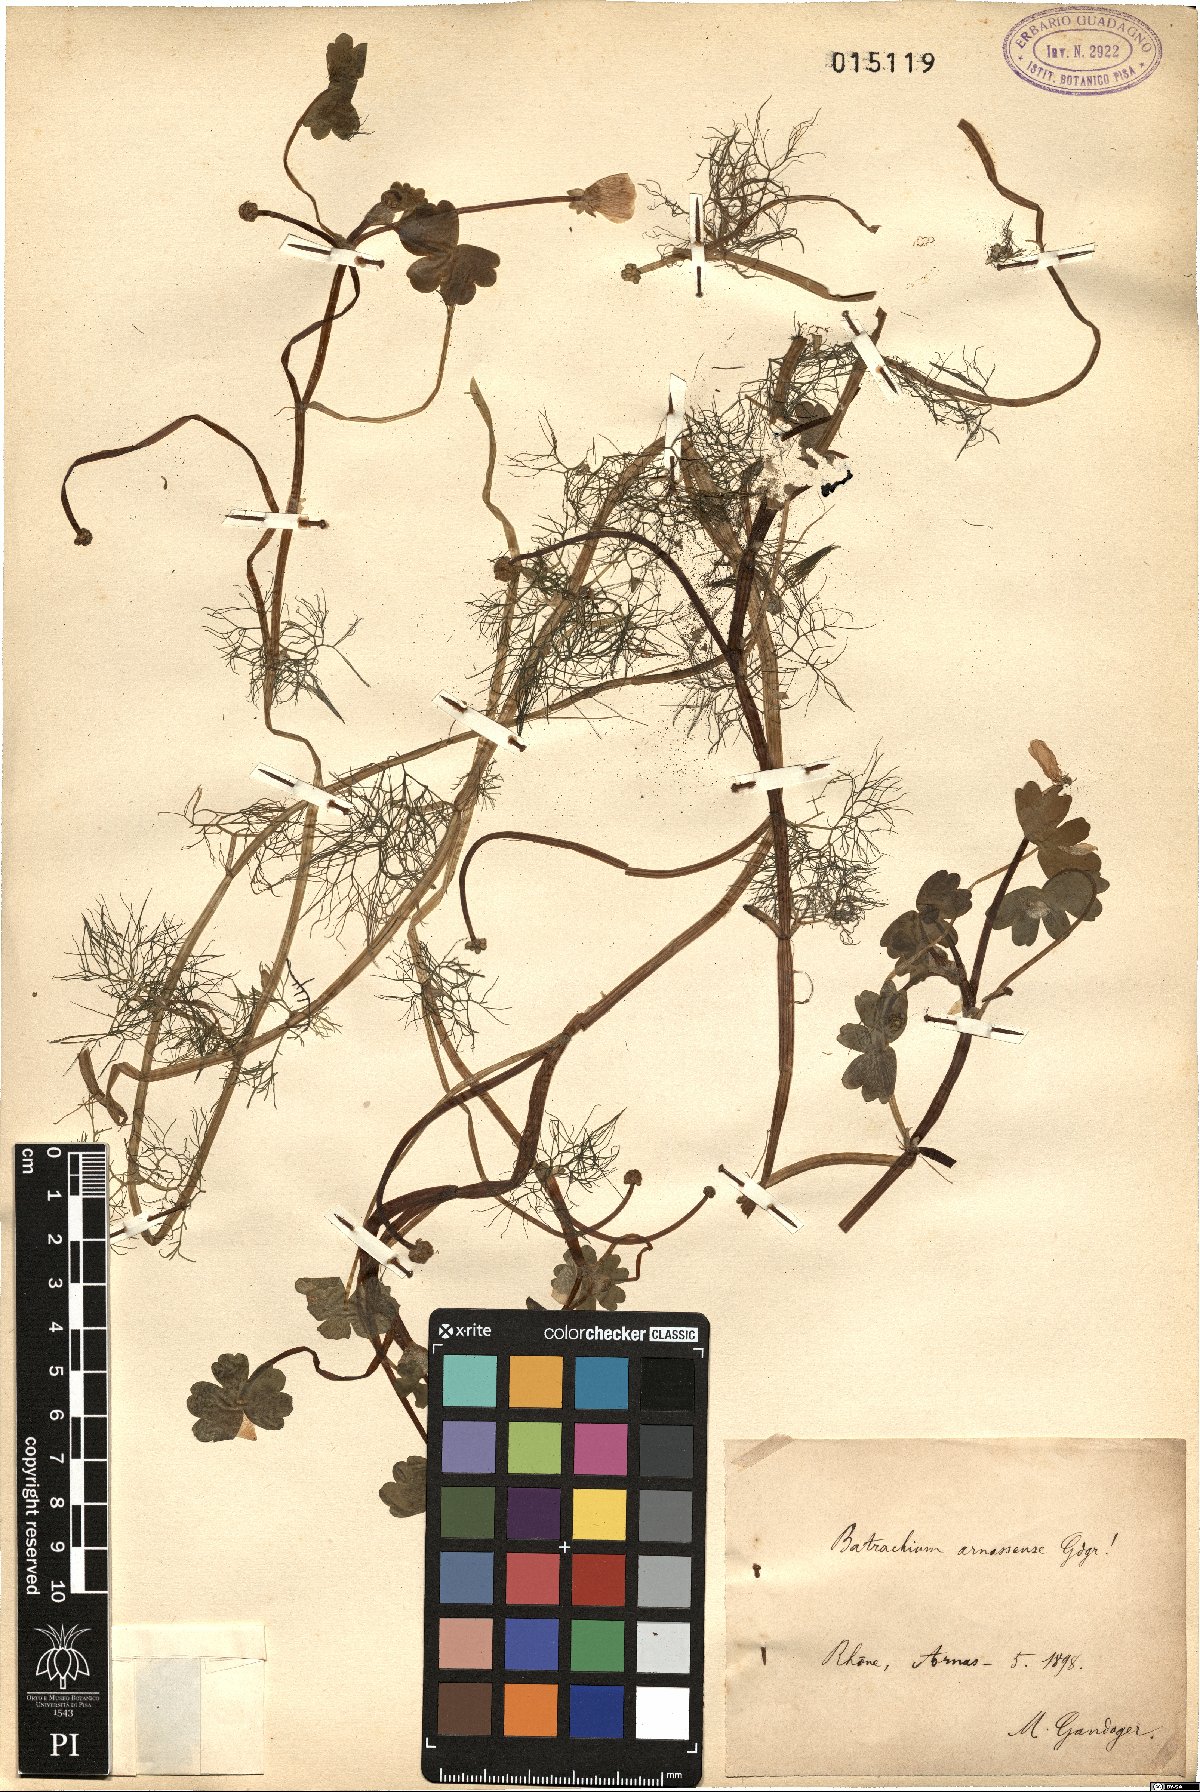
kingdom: Plantae
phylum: Tracheophyta
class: Magnoliopsida
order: Ranunculales
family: Ranunculaceae
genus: Ranunculus
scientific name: Ranunculus
